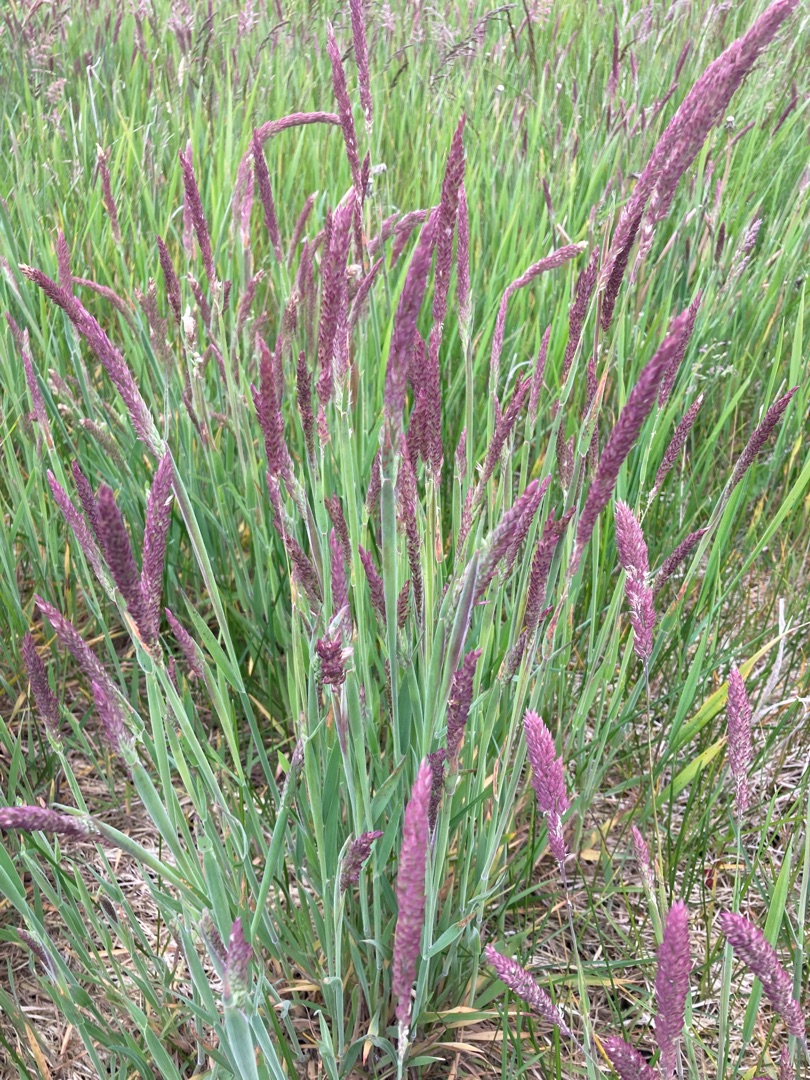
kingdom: Plantae
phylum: Tracheophyta
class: Liliopsida
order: Poales
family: Poaceae
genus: Holcus
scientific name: Holcus lanatus
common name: Fløjlsgræs
